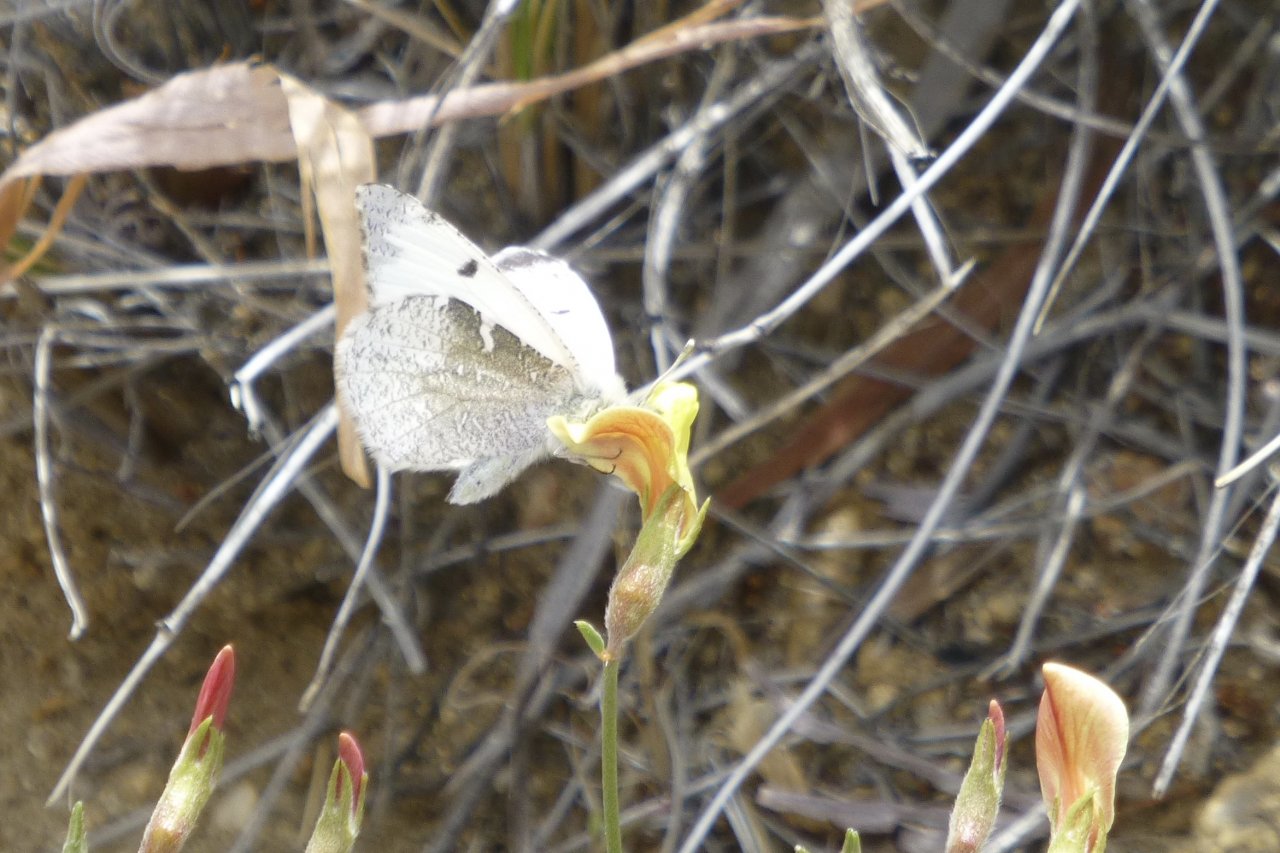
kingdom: Animalia
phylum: Arthropoda
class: Insecta
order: Lepidoptera
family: Pieridae
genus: Anthocharis
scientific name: Anthocharis lanceolata
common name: Gray Marble
